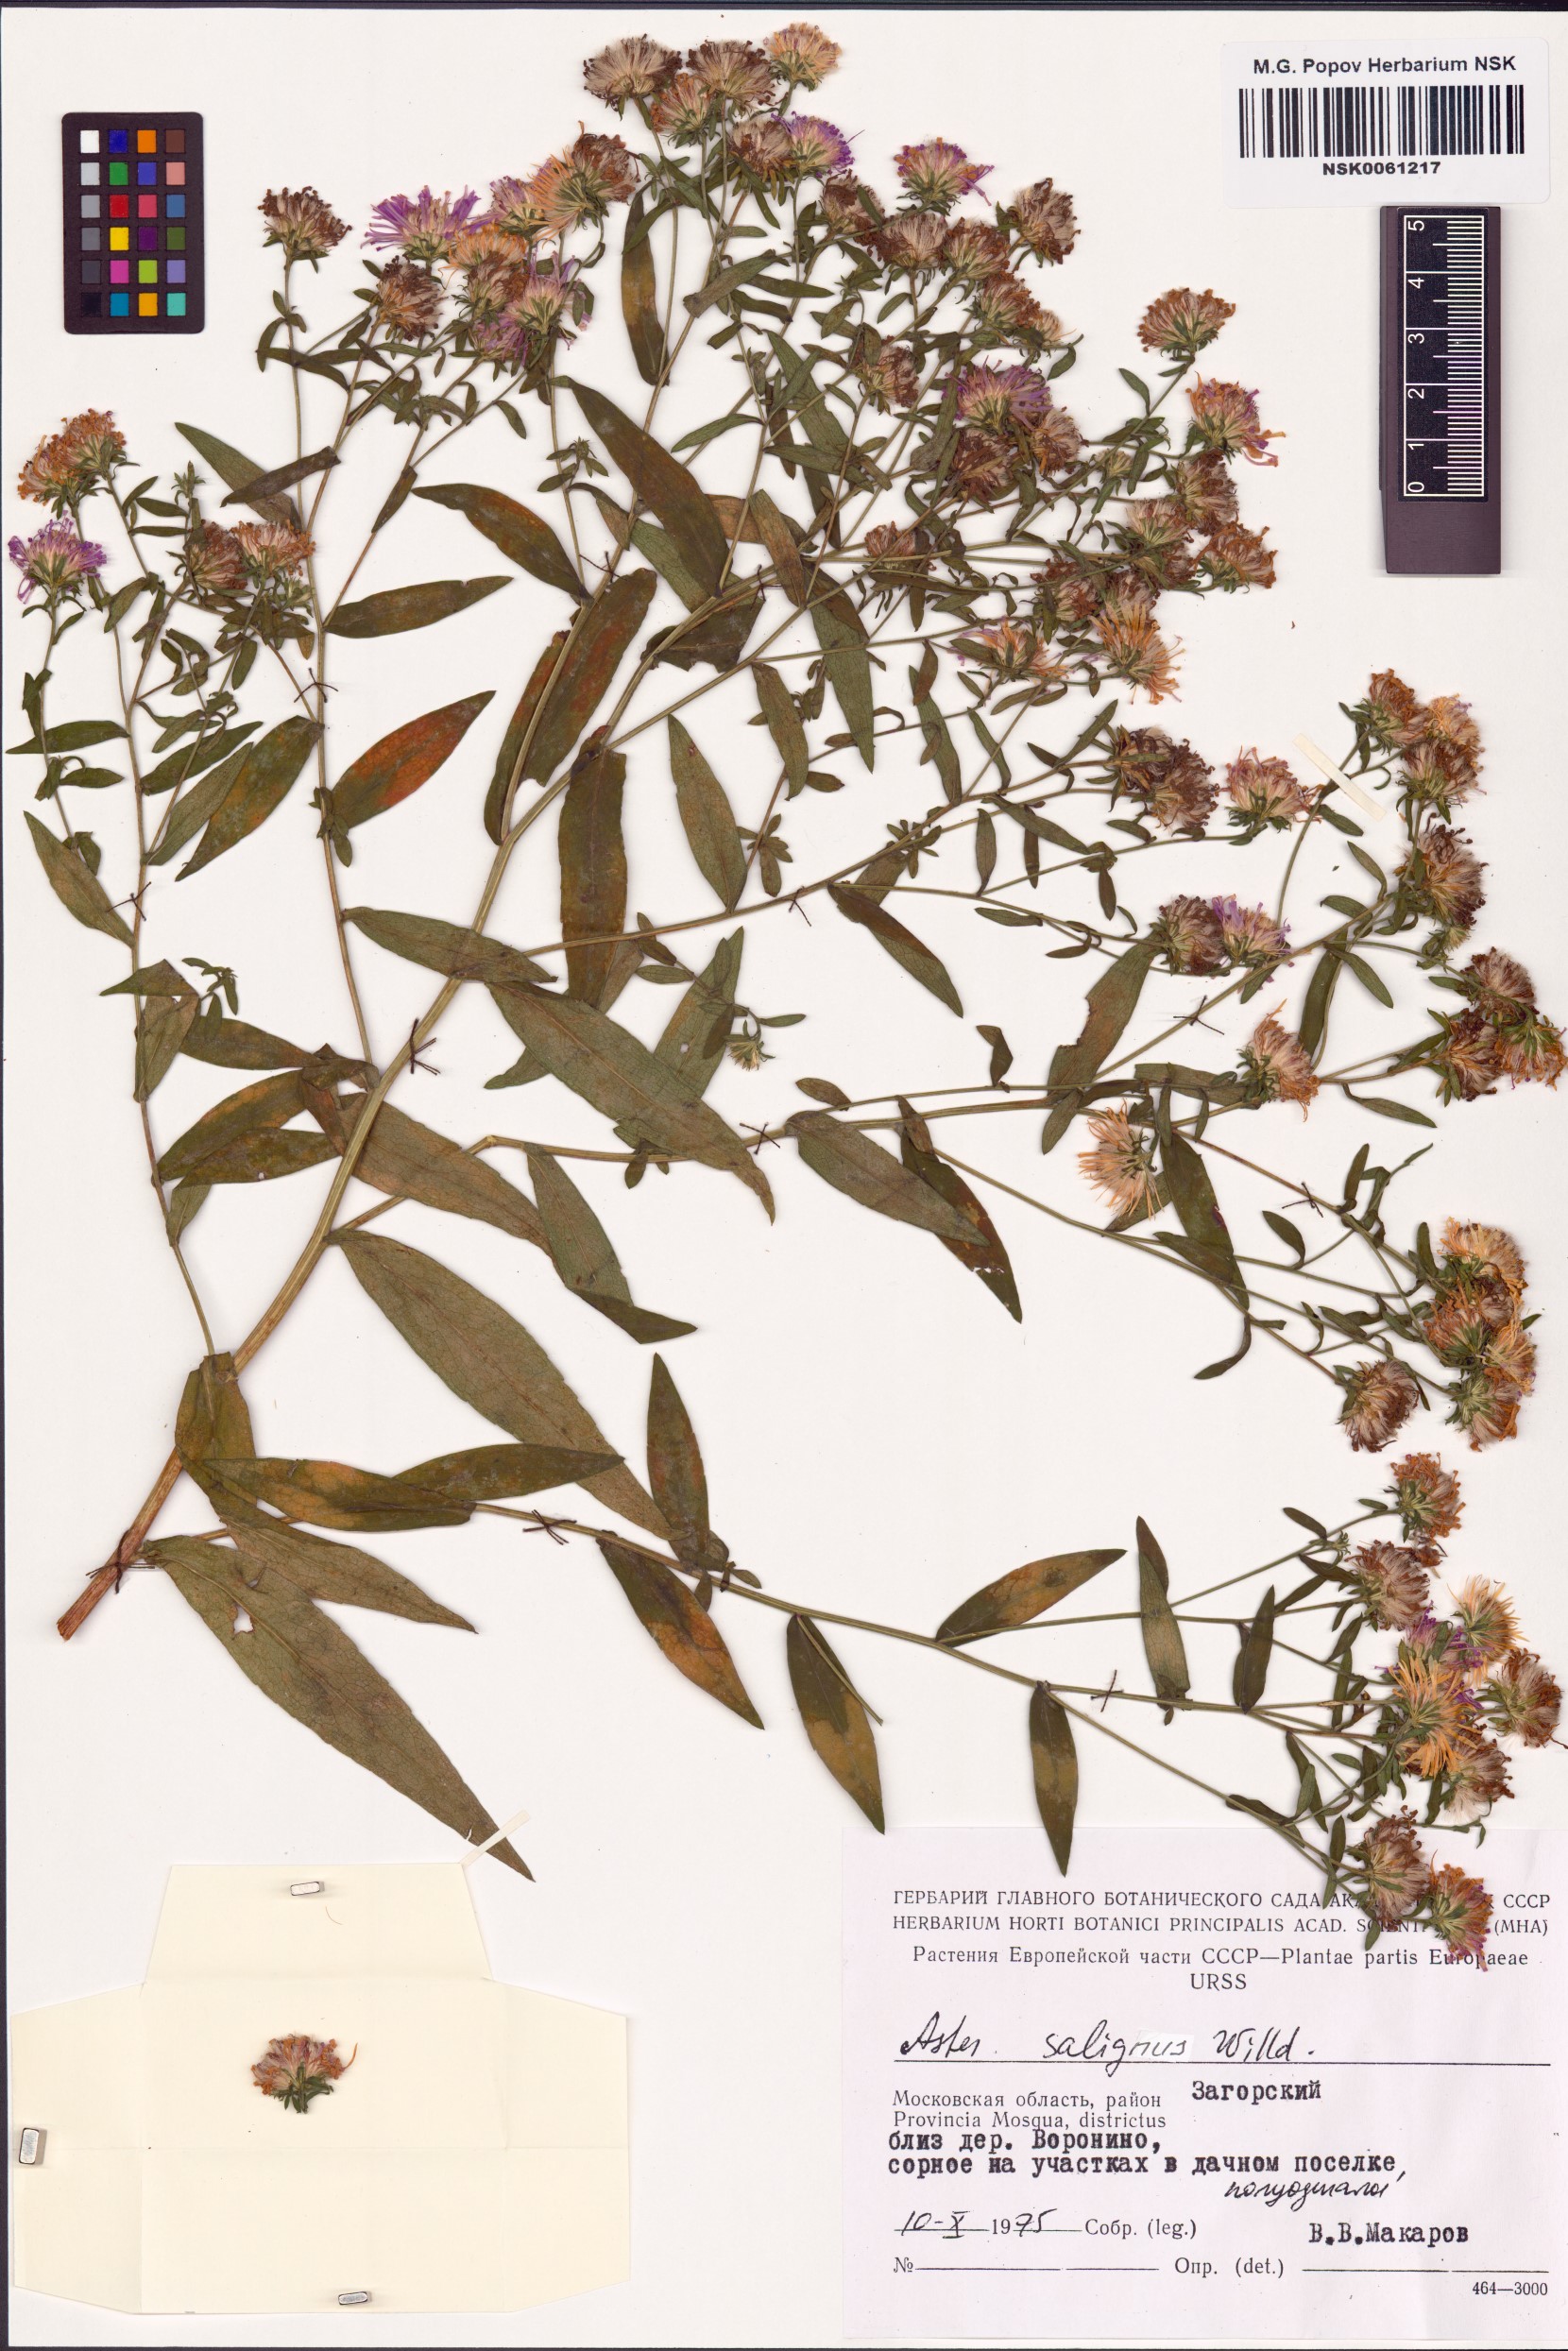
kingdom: Plantae
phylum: Tracheophyta
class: Magnoliopsida
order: Asterales
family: Asteraceae
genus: Symphyotrichum
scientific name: Symphyotrichum salignum
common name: Common michaelmas daisy
